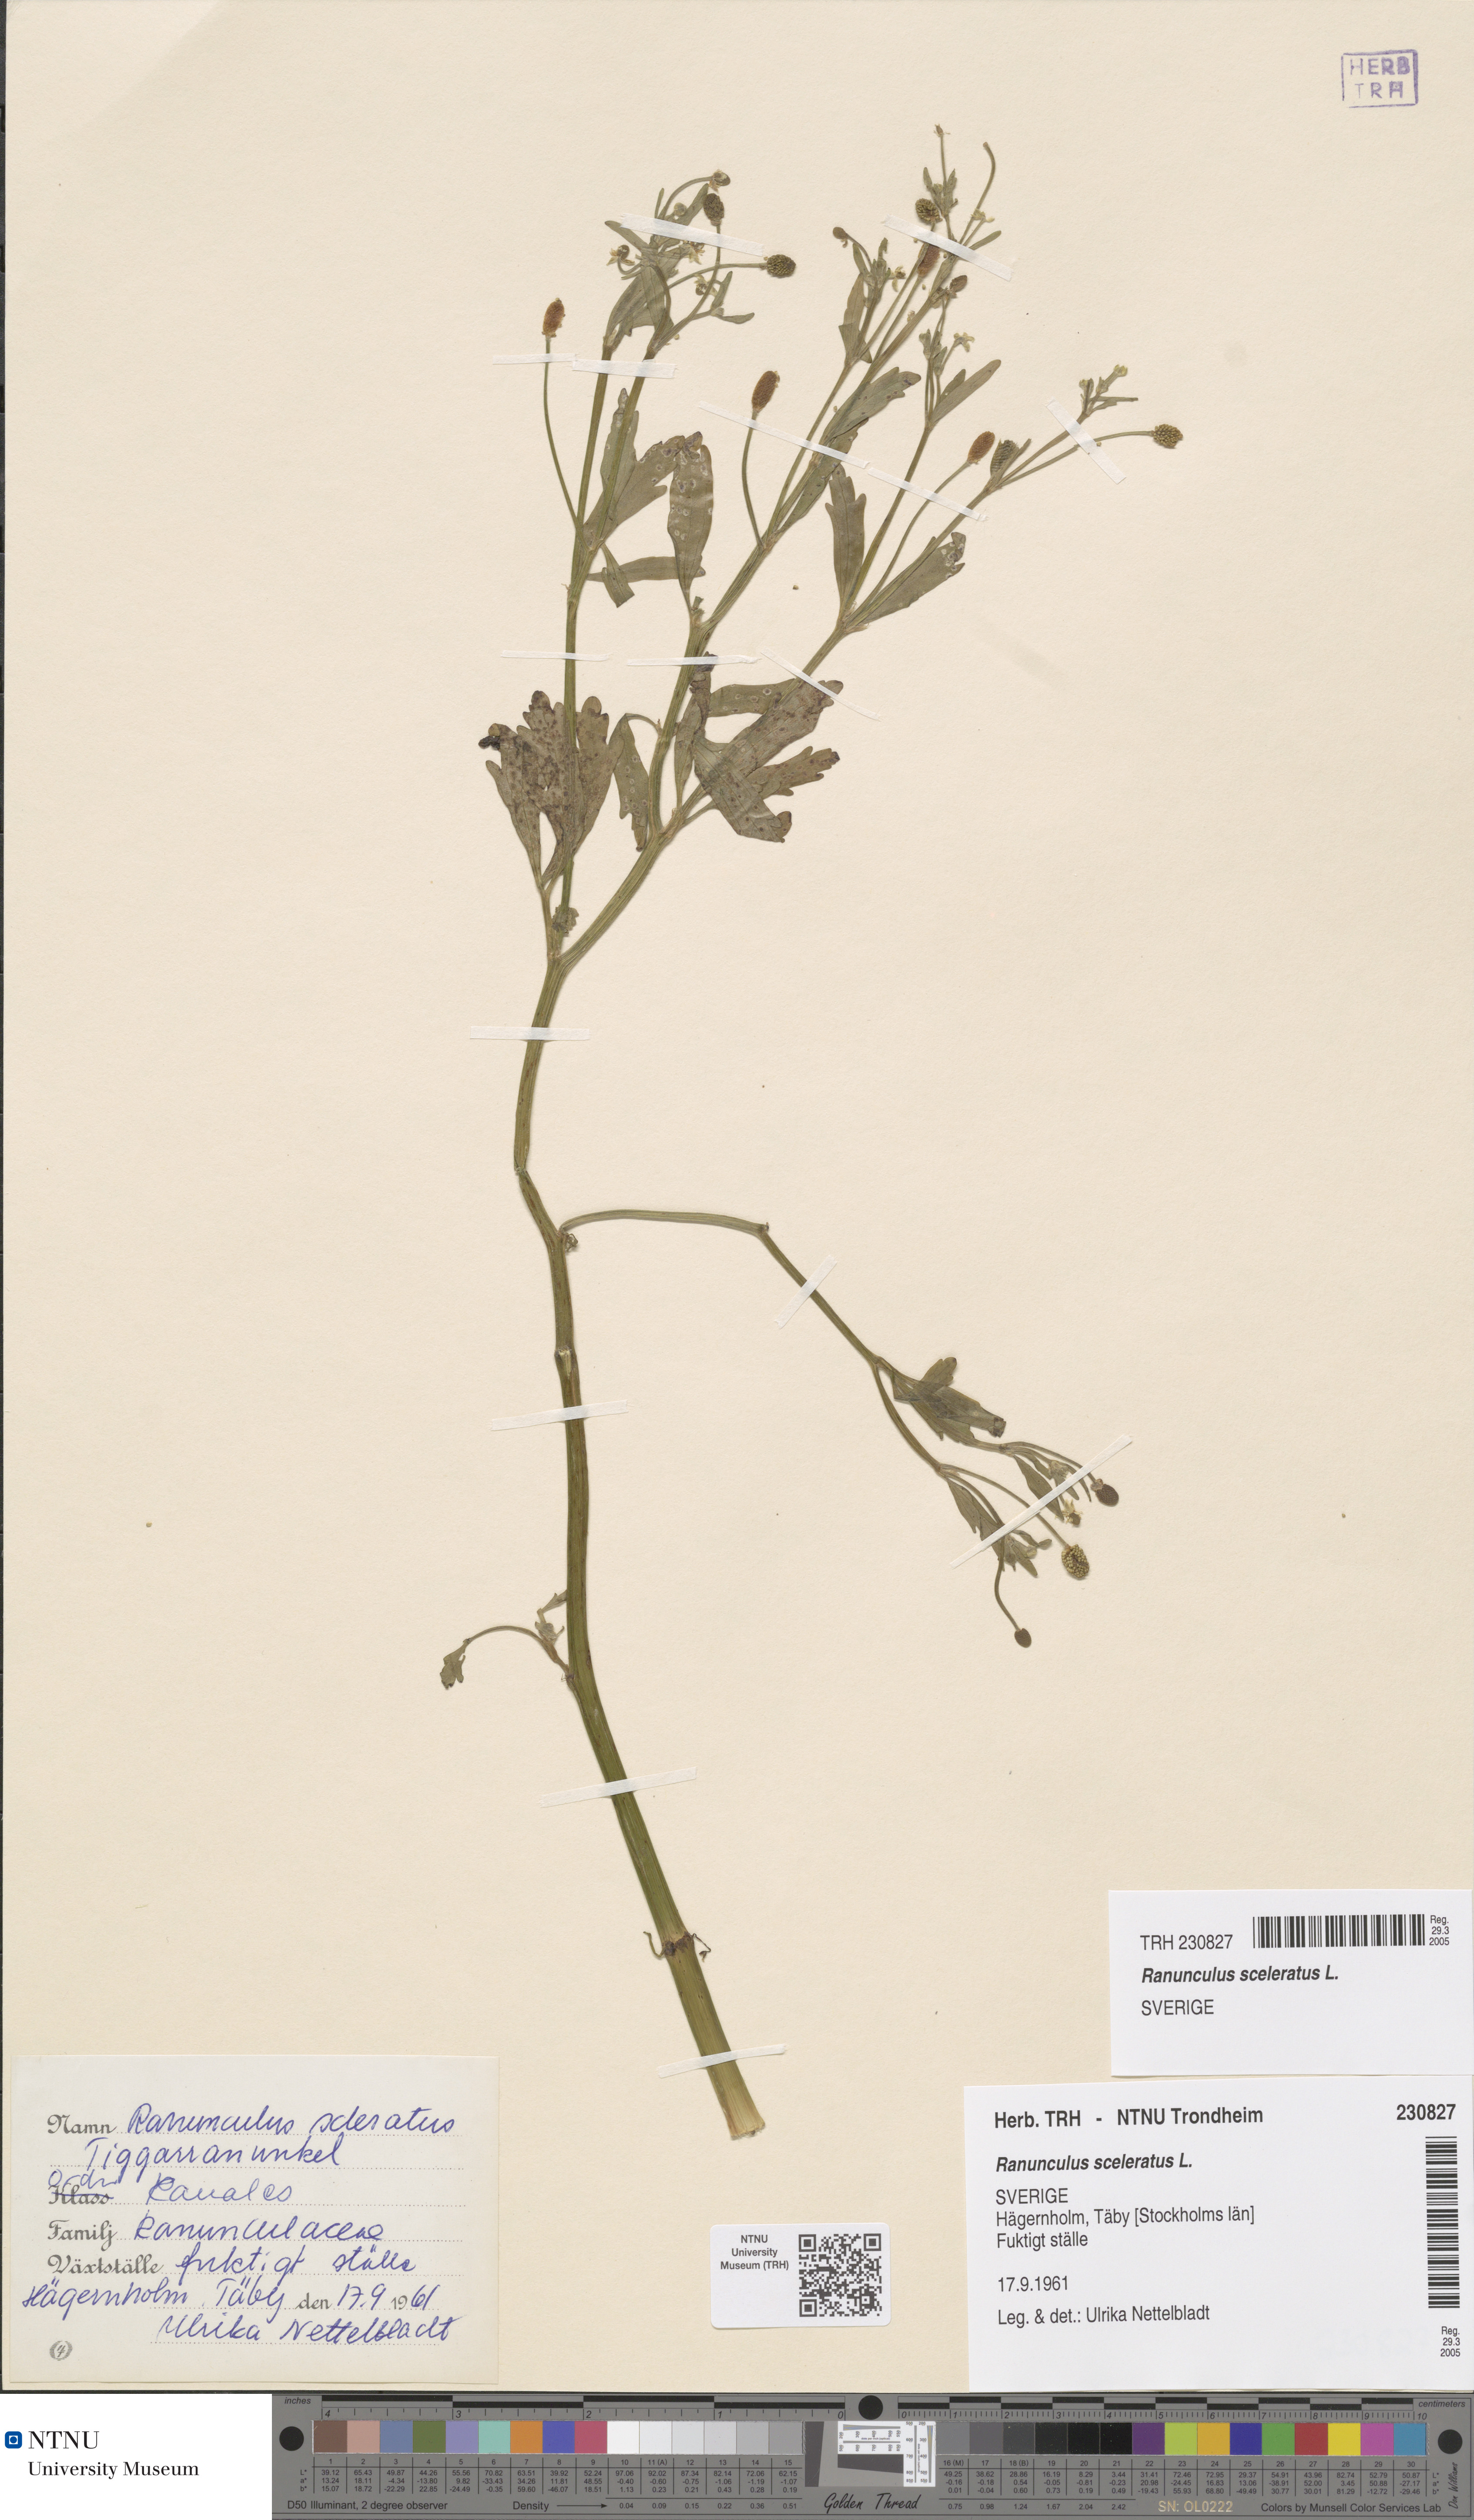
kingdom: Plantae
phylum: Tracheophyta
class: Magnoliopsida
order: Ranunculales
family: Ranunculaceae
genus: Ranunculus
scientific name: Ranunculus sceleratus
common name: Celery-leaved buttercup
